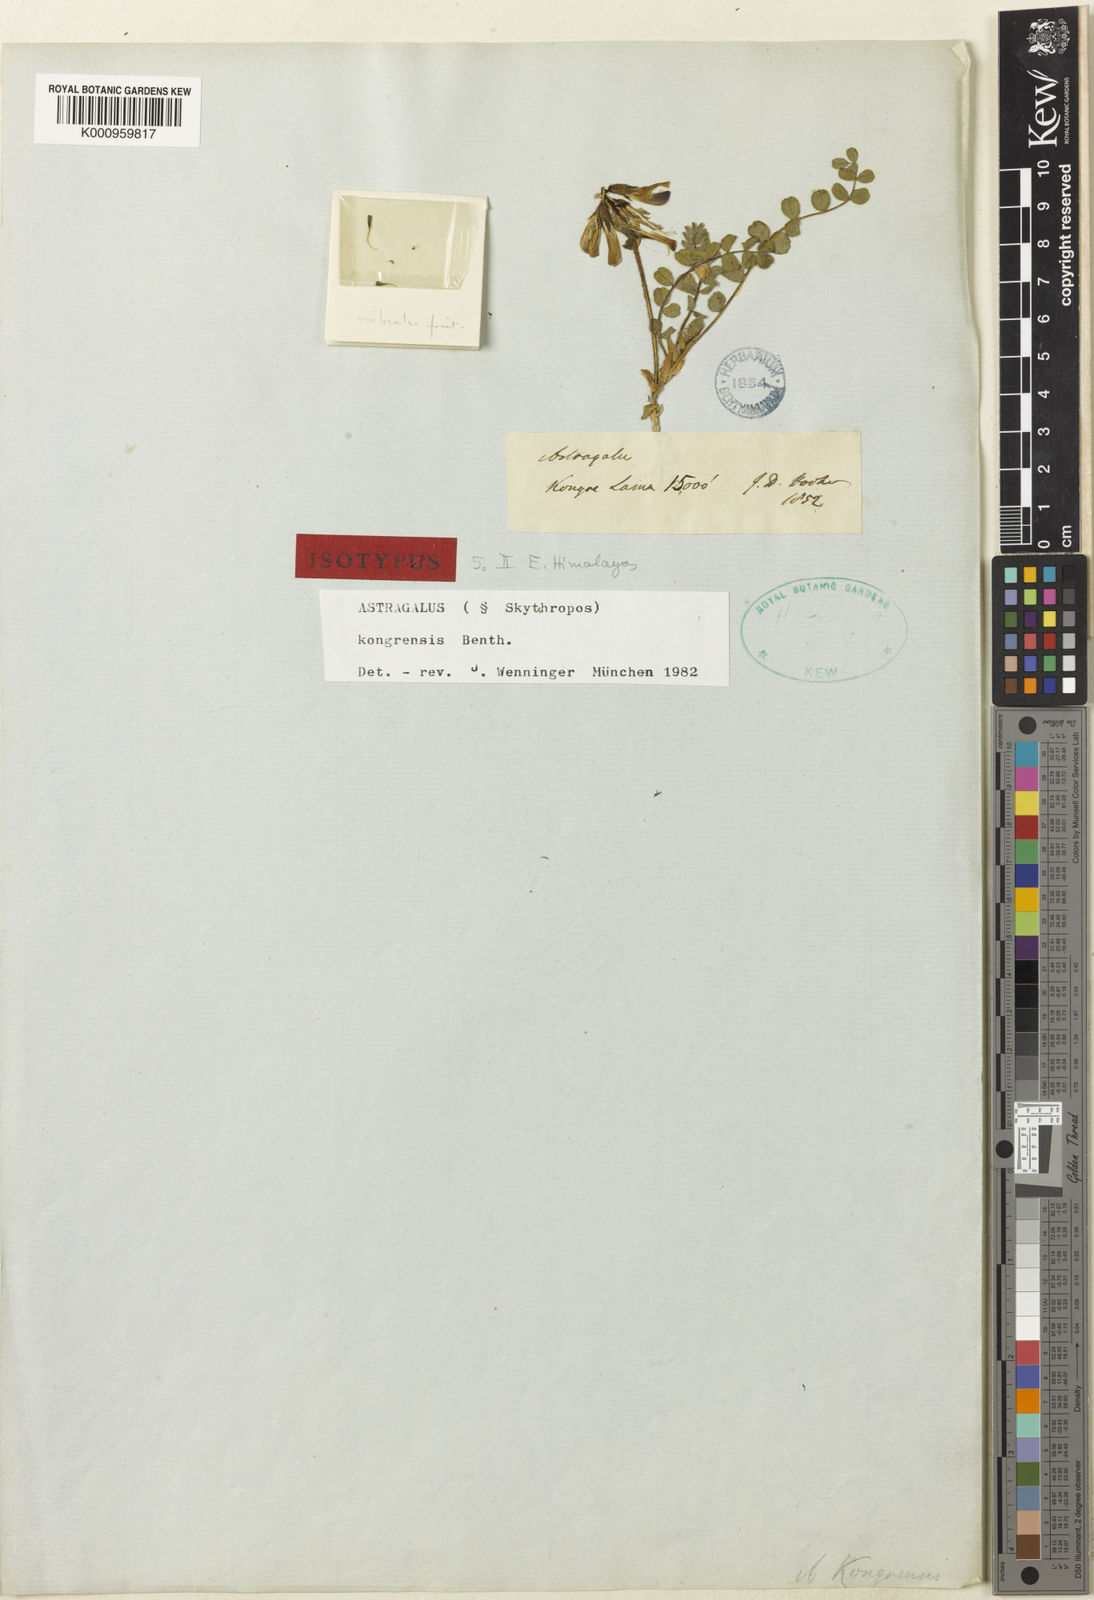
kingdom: Plantae
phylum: Tracheophyta
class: Magnoliopsida
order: Fabales
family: Fabaceae
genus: Astragalus
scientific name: Astragalus
